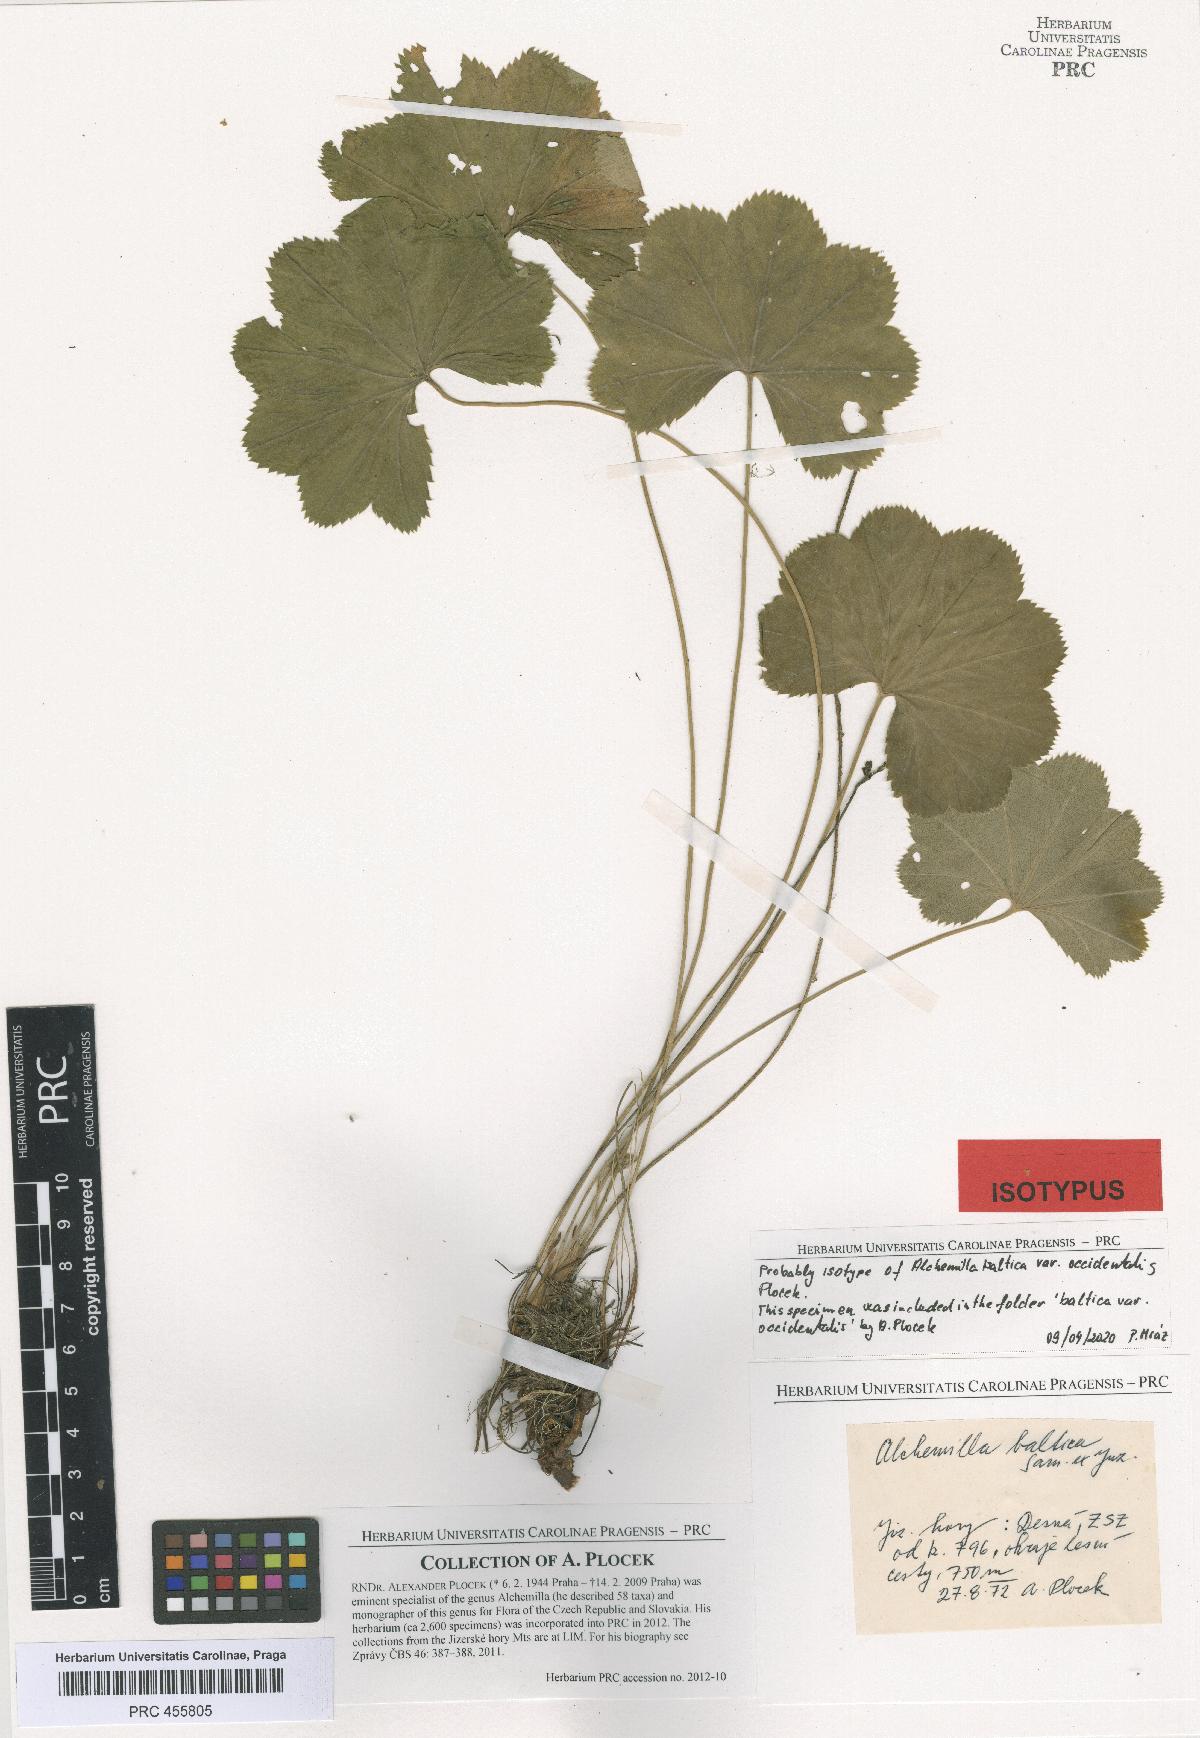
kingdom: Plantae
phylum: Tracheophyta
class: Magnoliopsida
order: Rosales
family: Rosaceae
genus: Alchemilla
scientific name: Alchemilla corcontica
